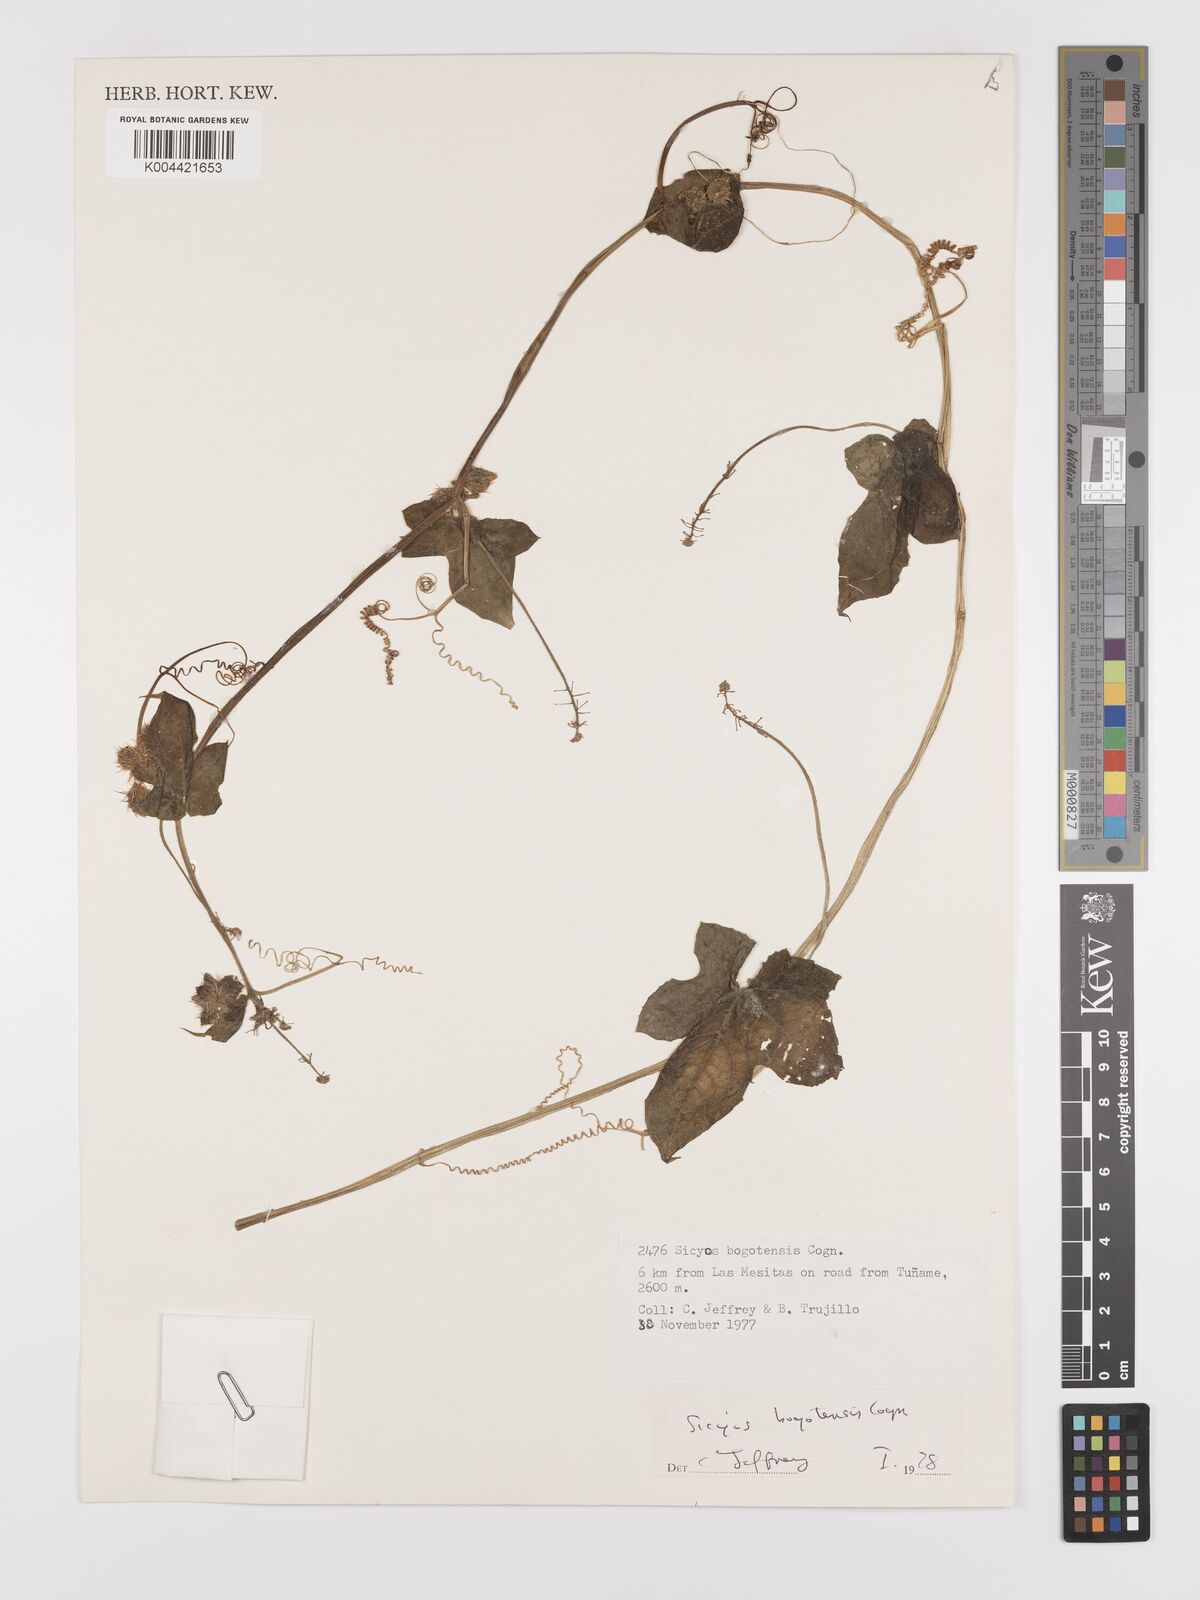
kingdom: Plantae
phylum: Tracheophyta
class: Magnoliopsida
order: Cucurbitales
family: Cucurbitaceae
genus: Sicyos
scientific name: Sicyos bogotensis
